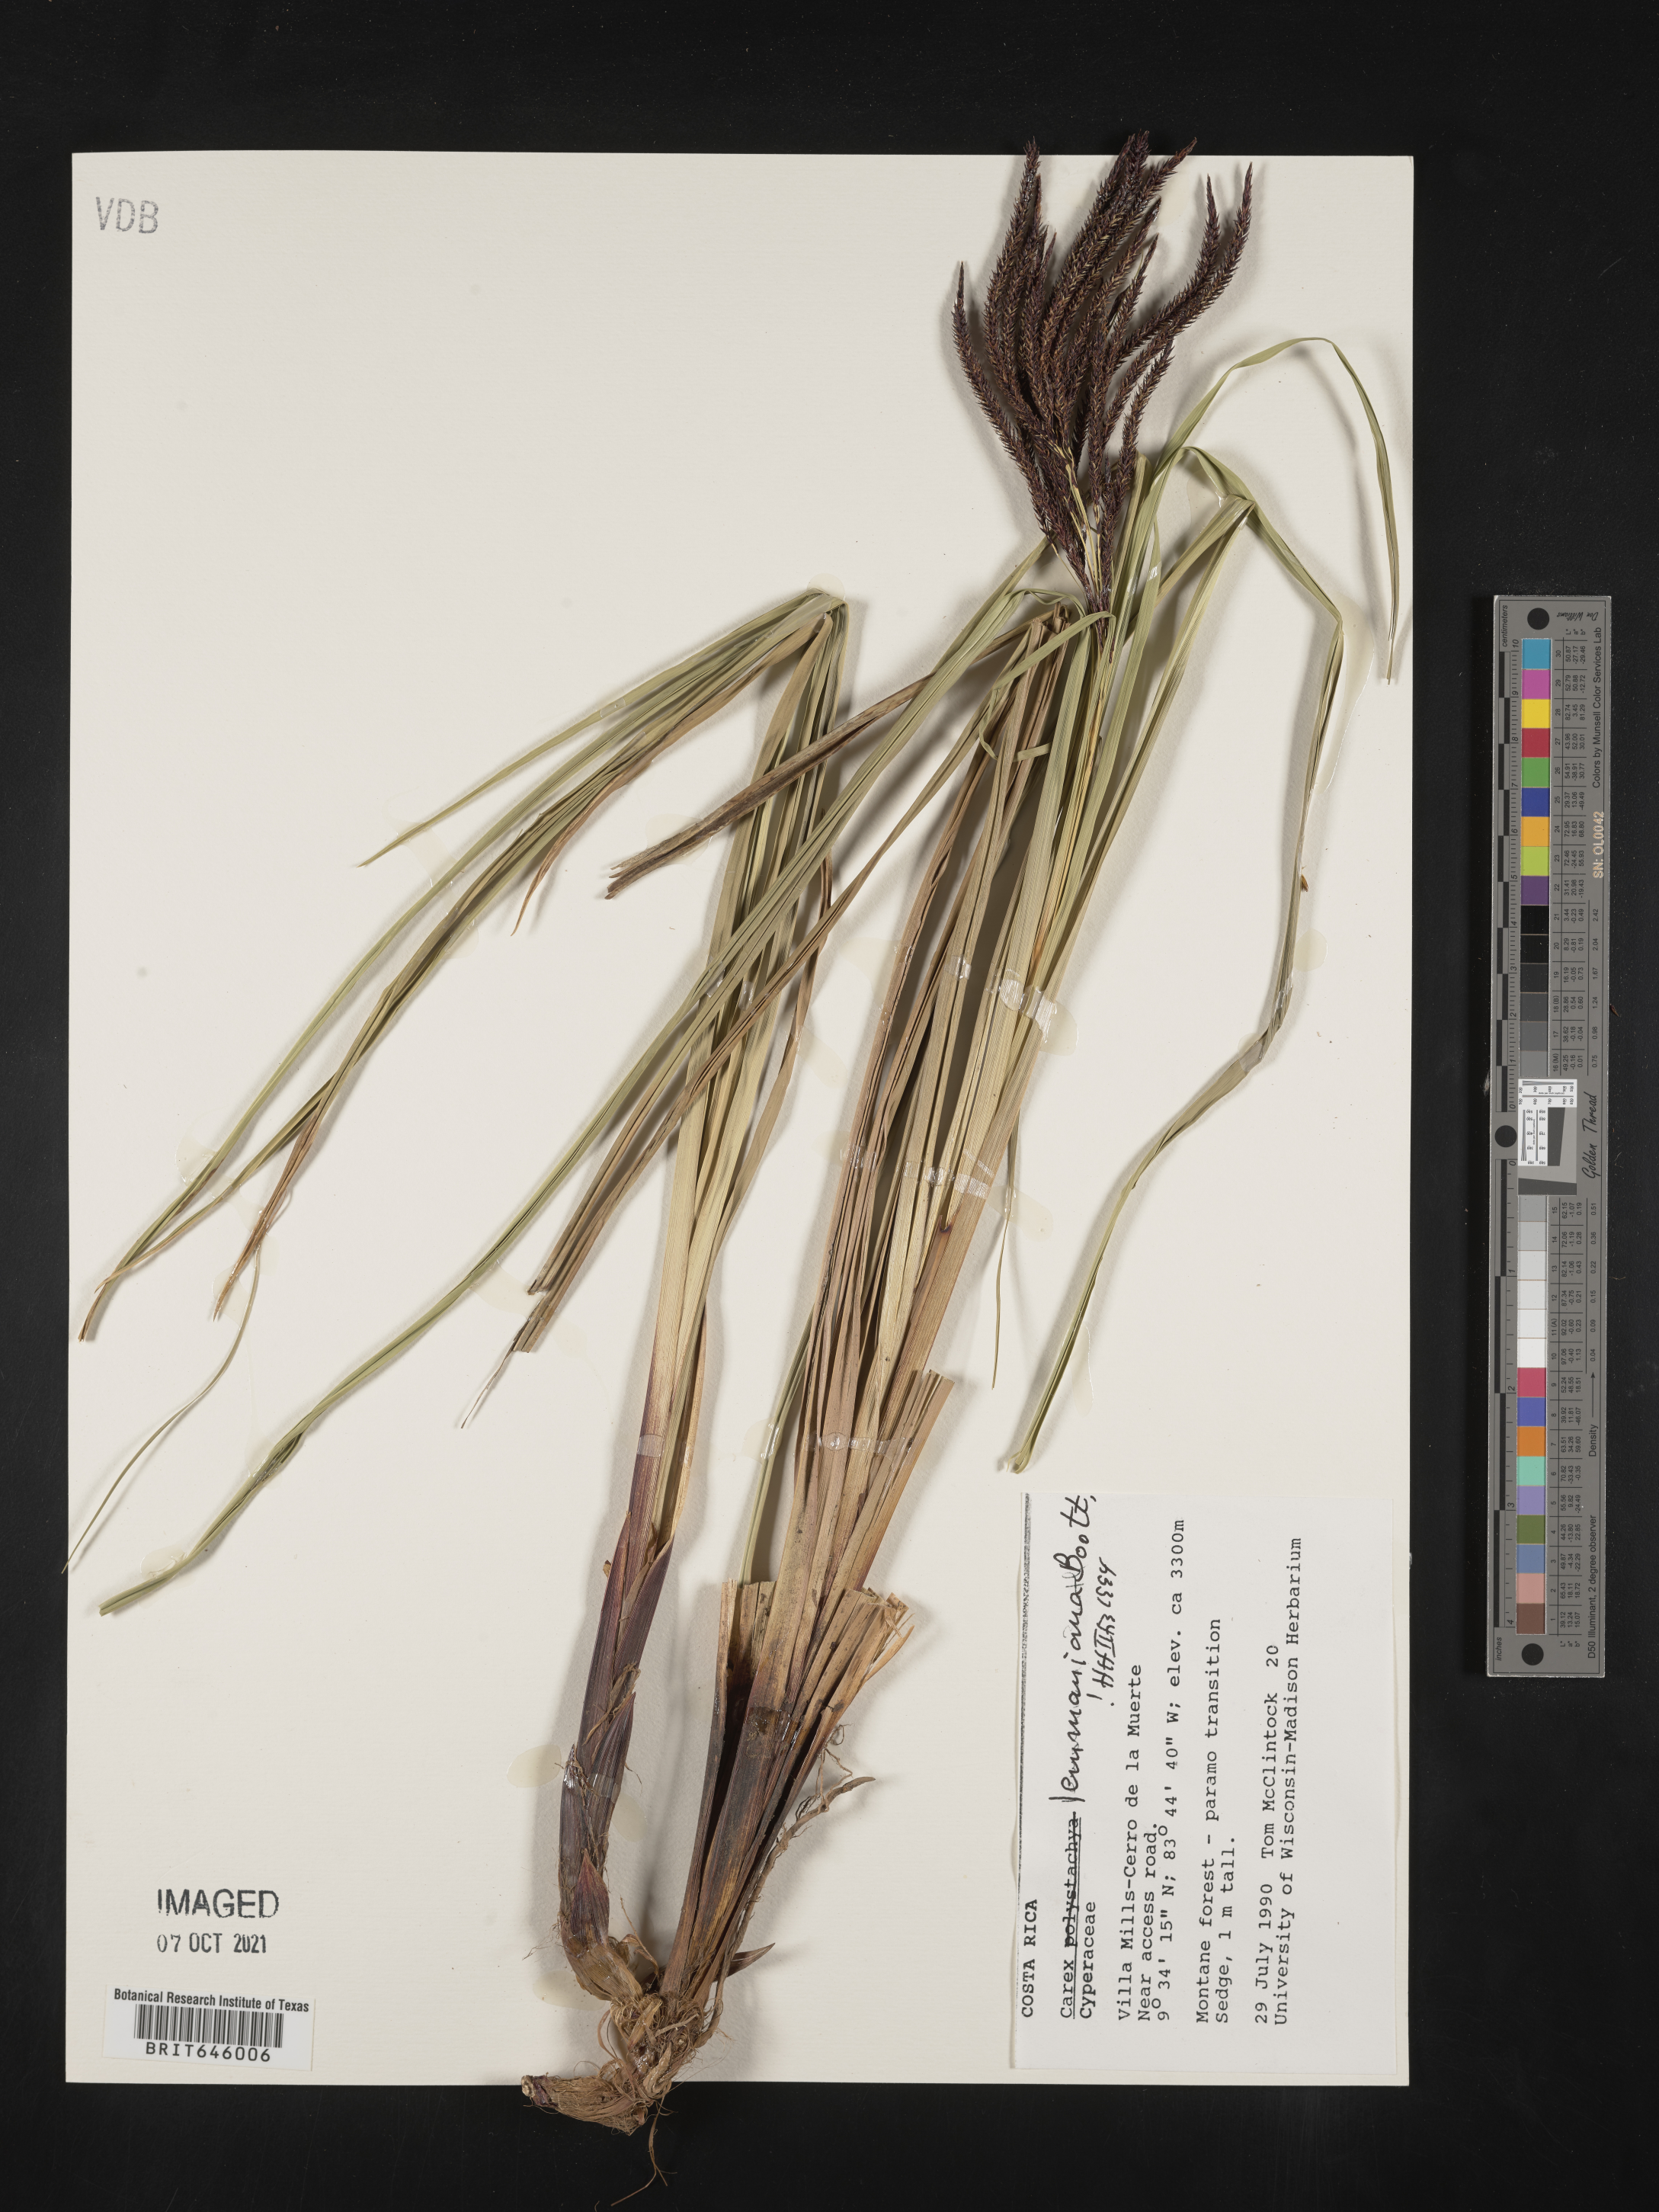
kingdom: Plantae
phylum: Tracheophyta
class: Liliopsida
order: Poales
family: Cyperaceae
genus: Carex
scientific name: Carex lemanniana
